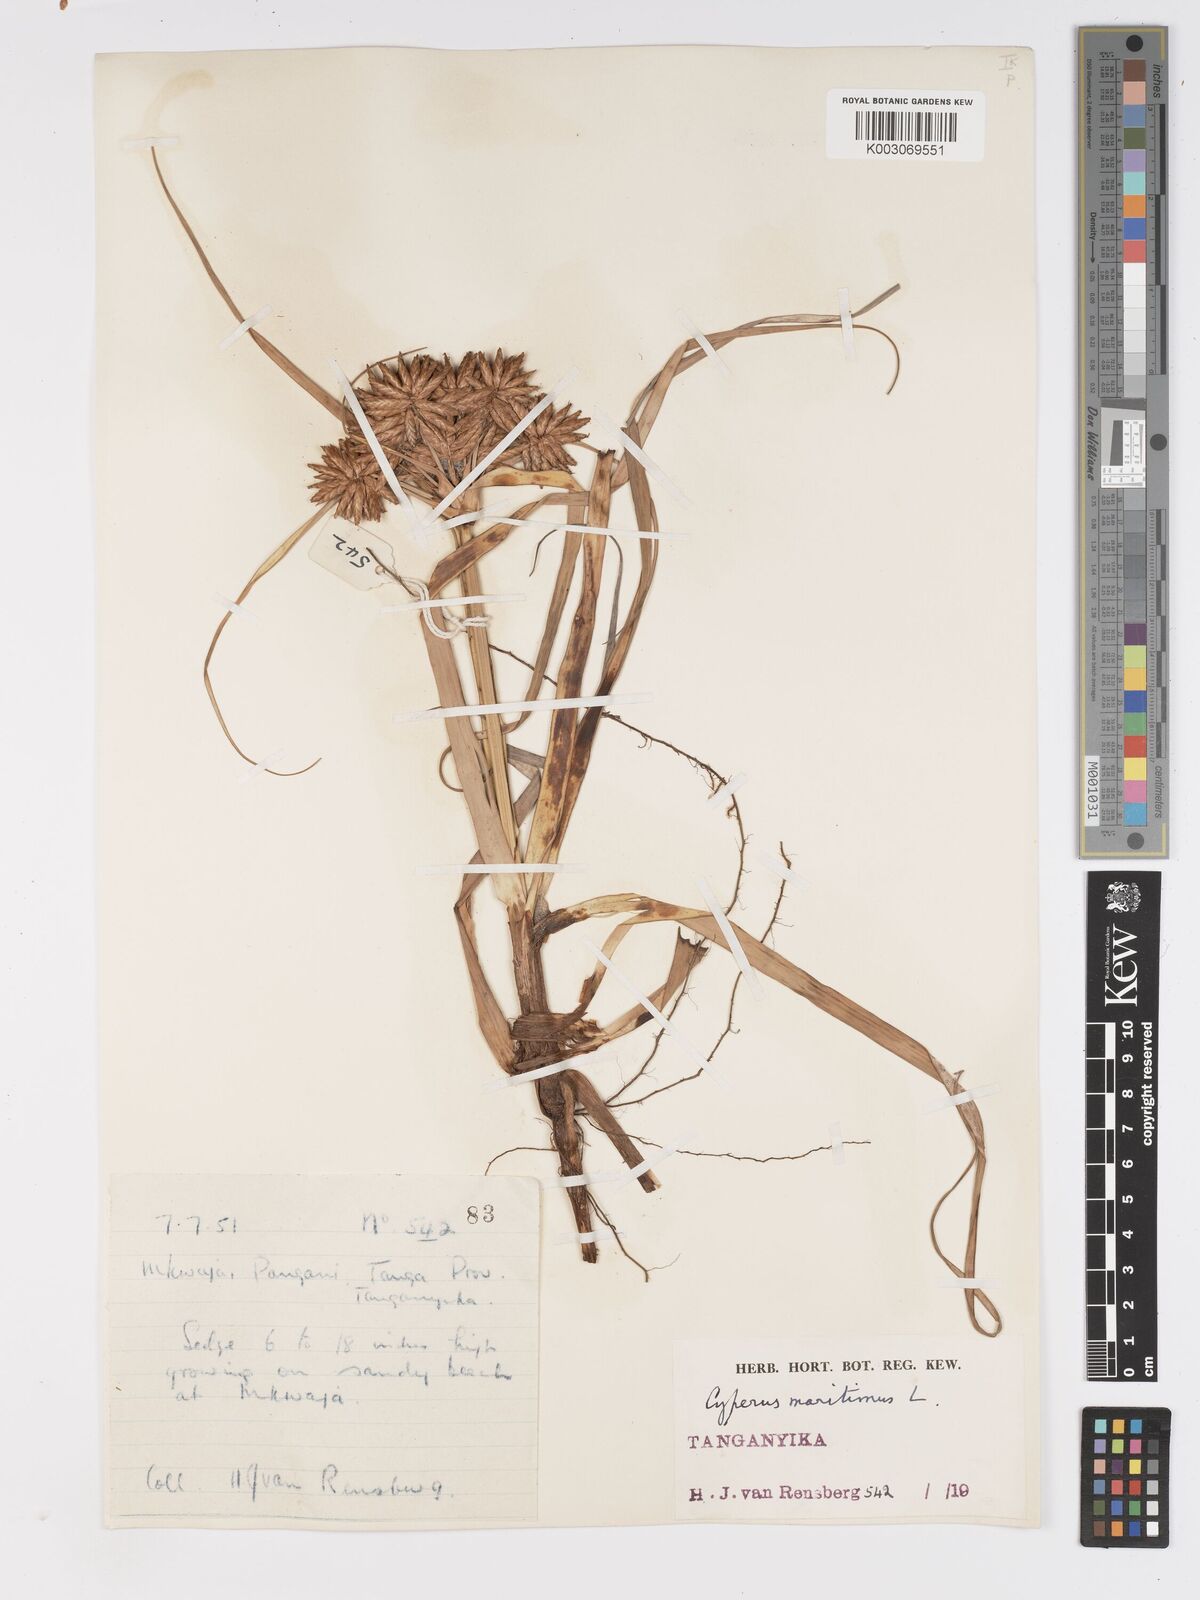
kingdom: Plantae
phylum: Tracheophyta
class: Liliopsida
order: Poales
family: Cyperaceae
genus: Cyperus
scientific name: Cyperus crassipes
